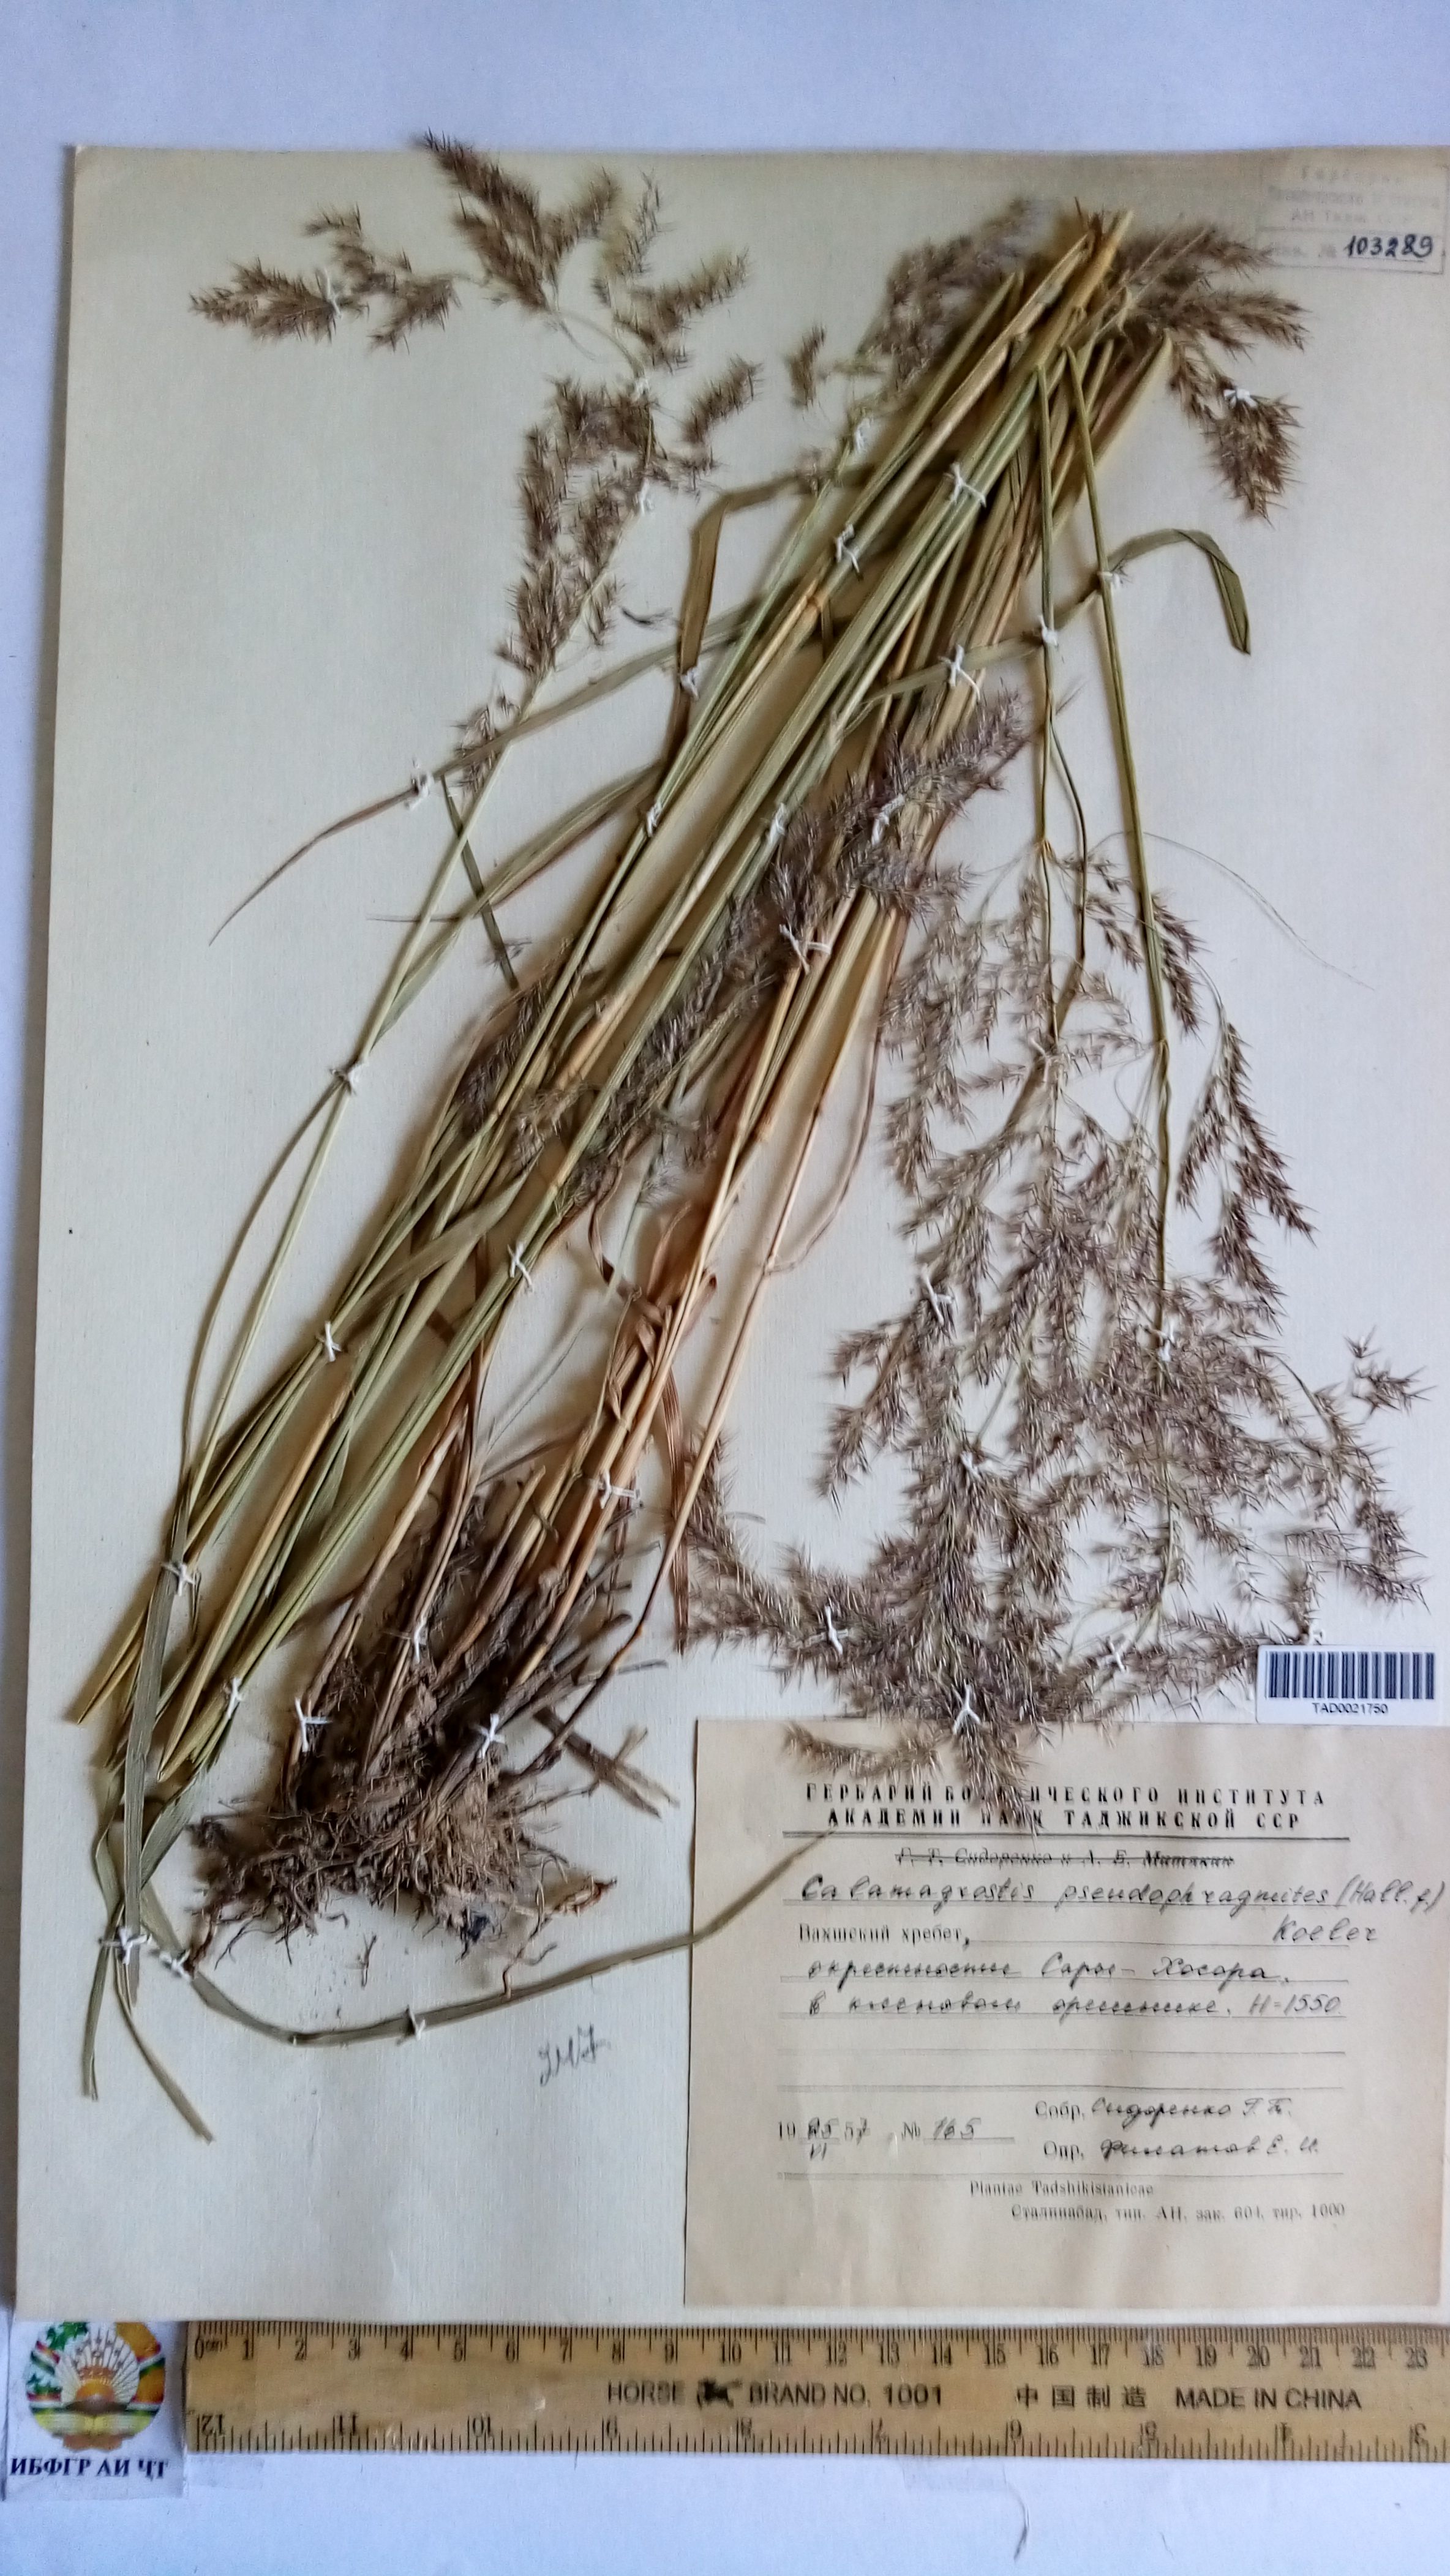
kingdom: Plantae
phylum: Tracheophyta
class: Liliopsida
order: Poales
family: Poaceae
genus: Calamagrostis
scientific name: Calamagrostis pseudophragmites
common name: Coastal small-reed
